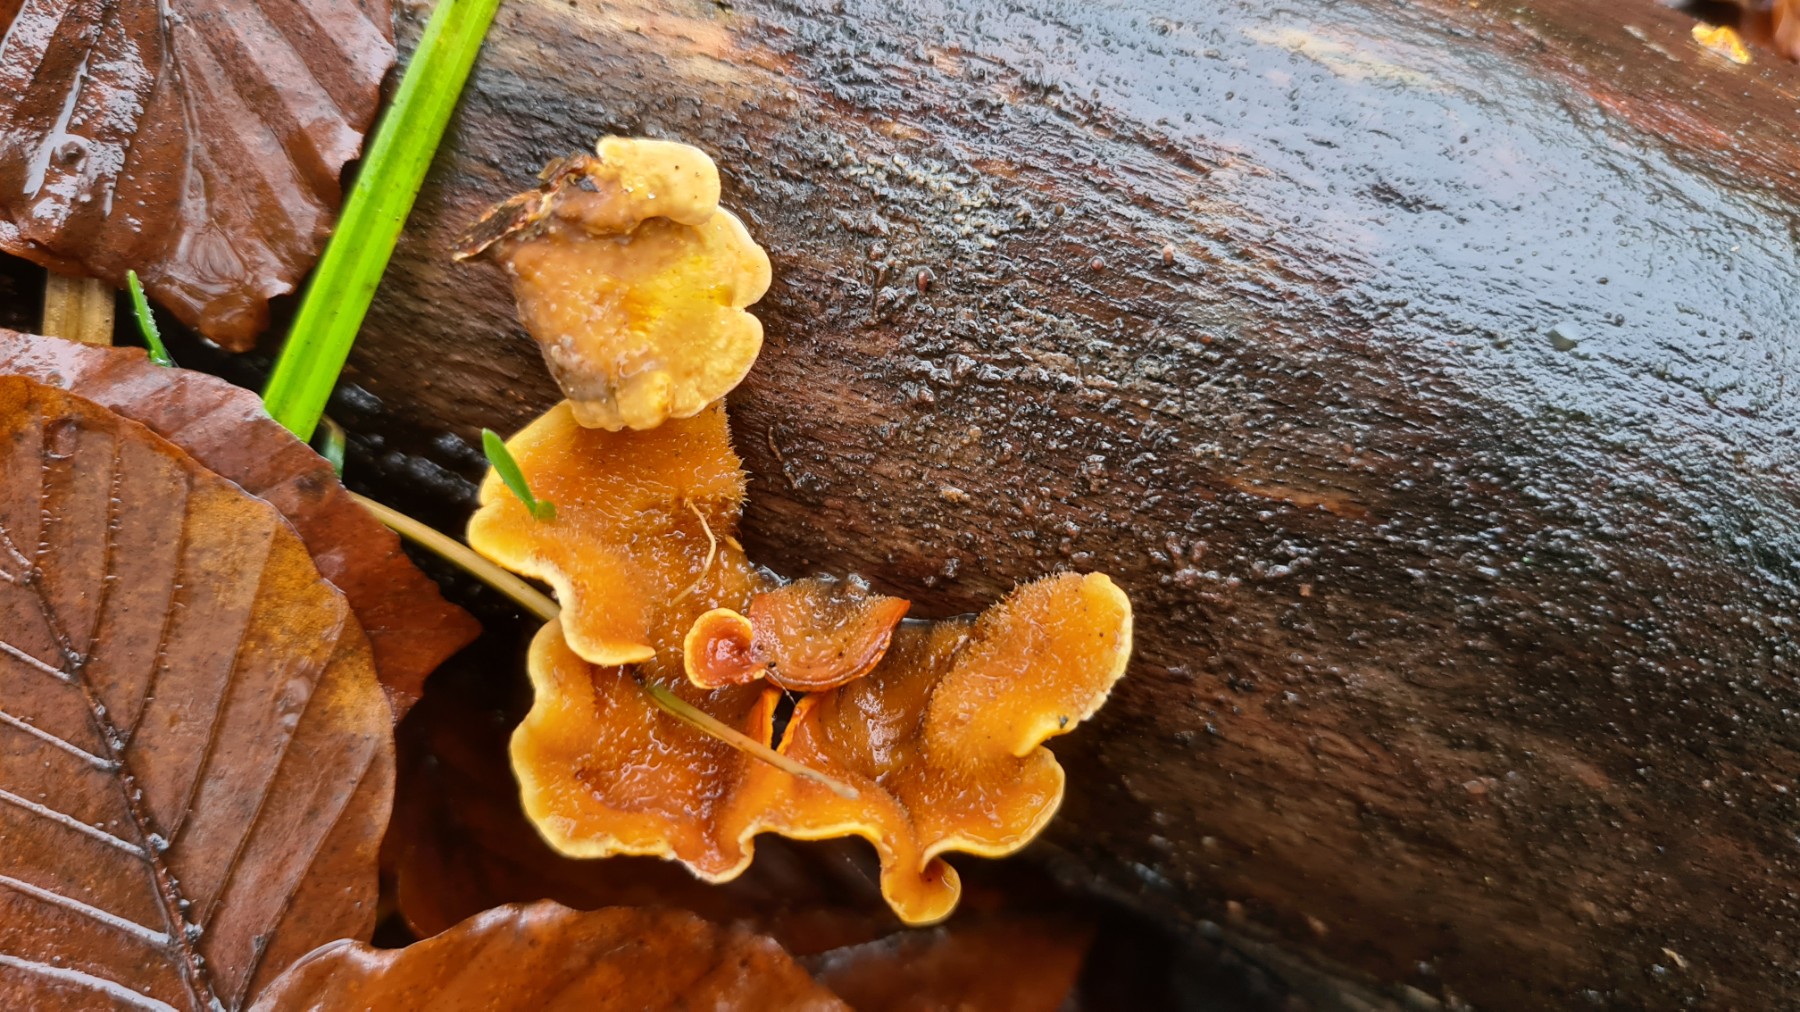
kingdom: Fungi
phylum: Basidiomycota
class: Agaricomycetes
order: Russulales
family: Stereaceae
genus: Stereum
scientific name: Stereum hirsutum
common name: håret lædersvamp
